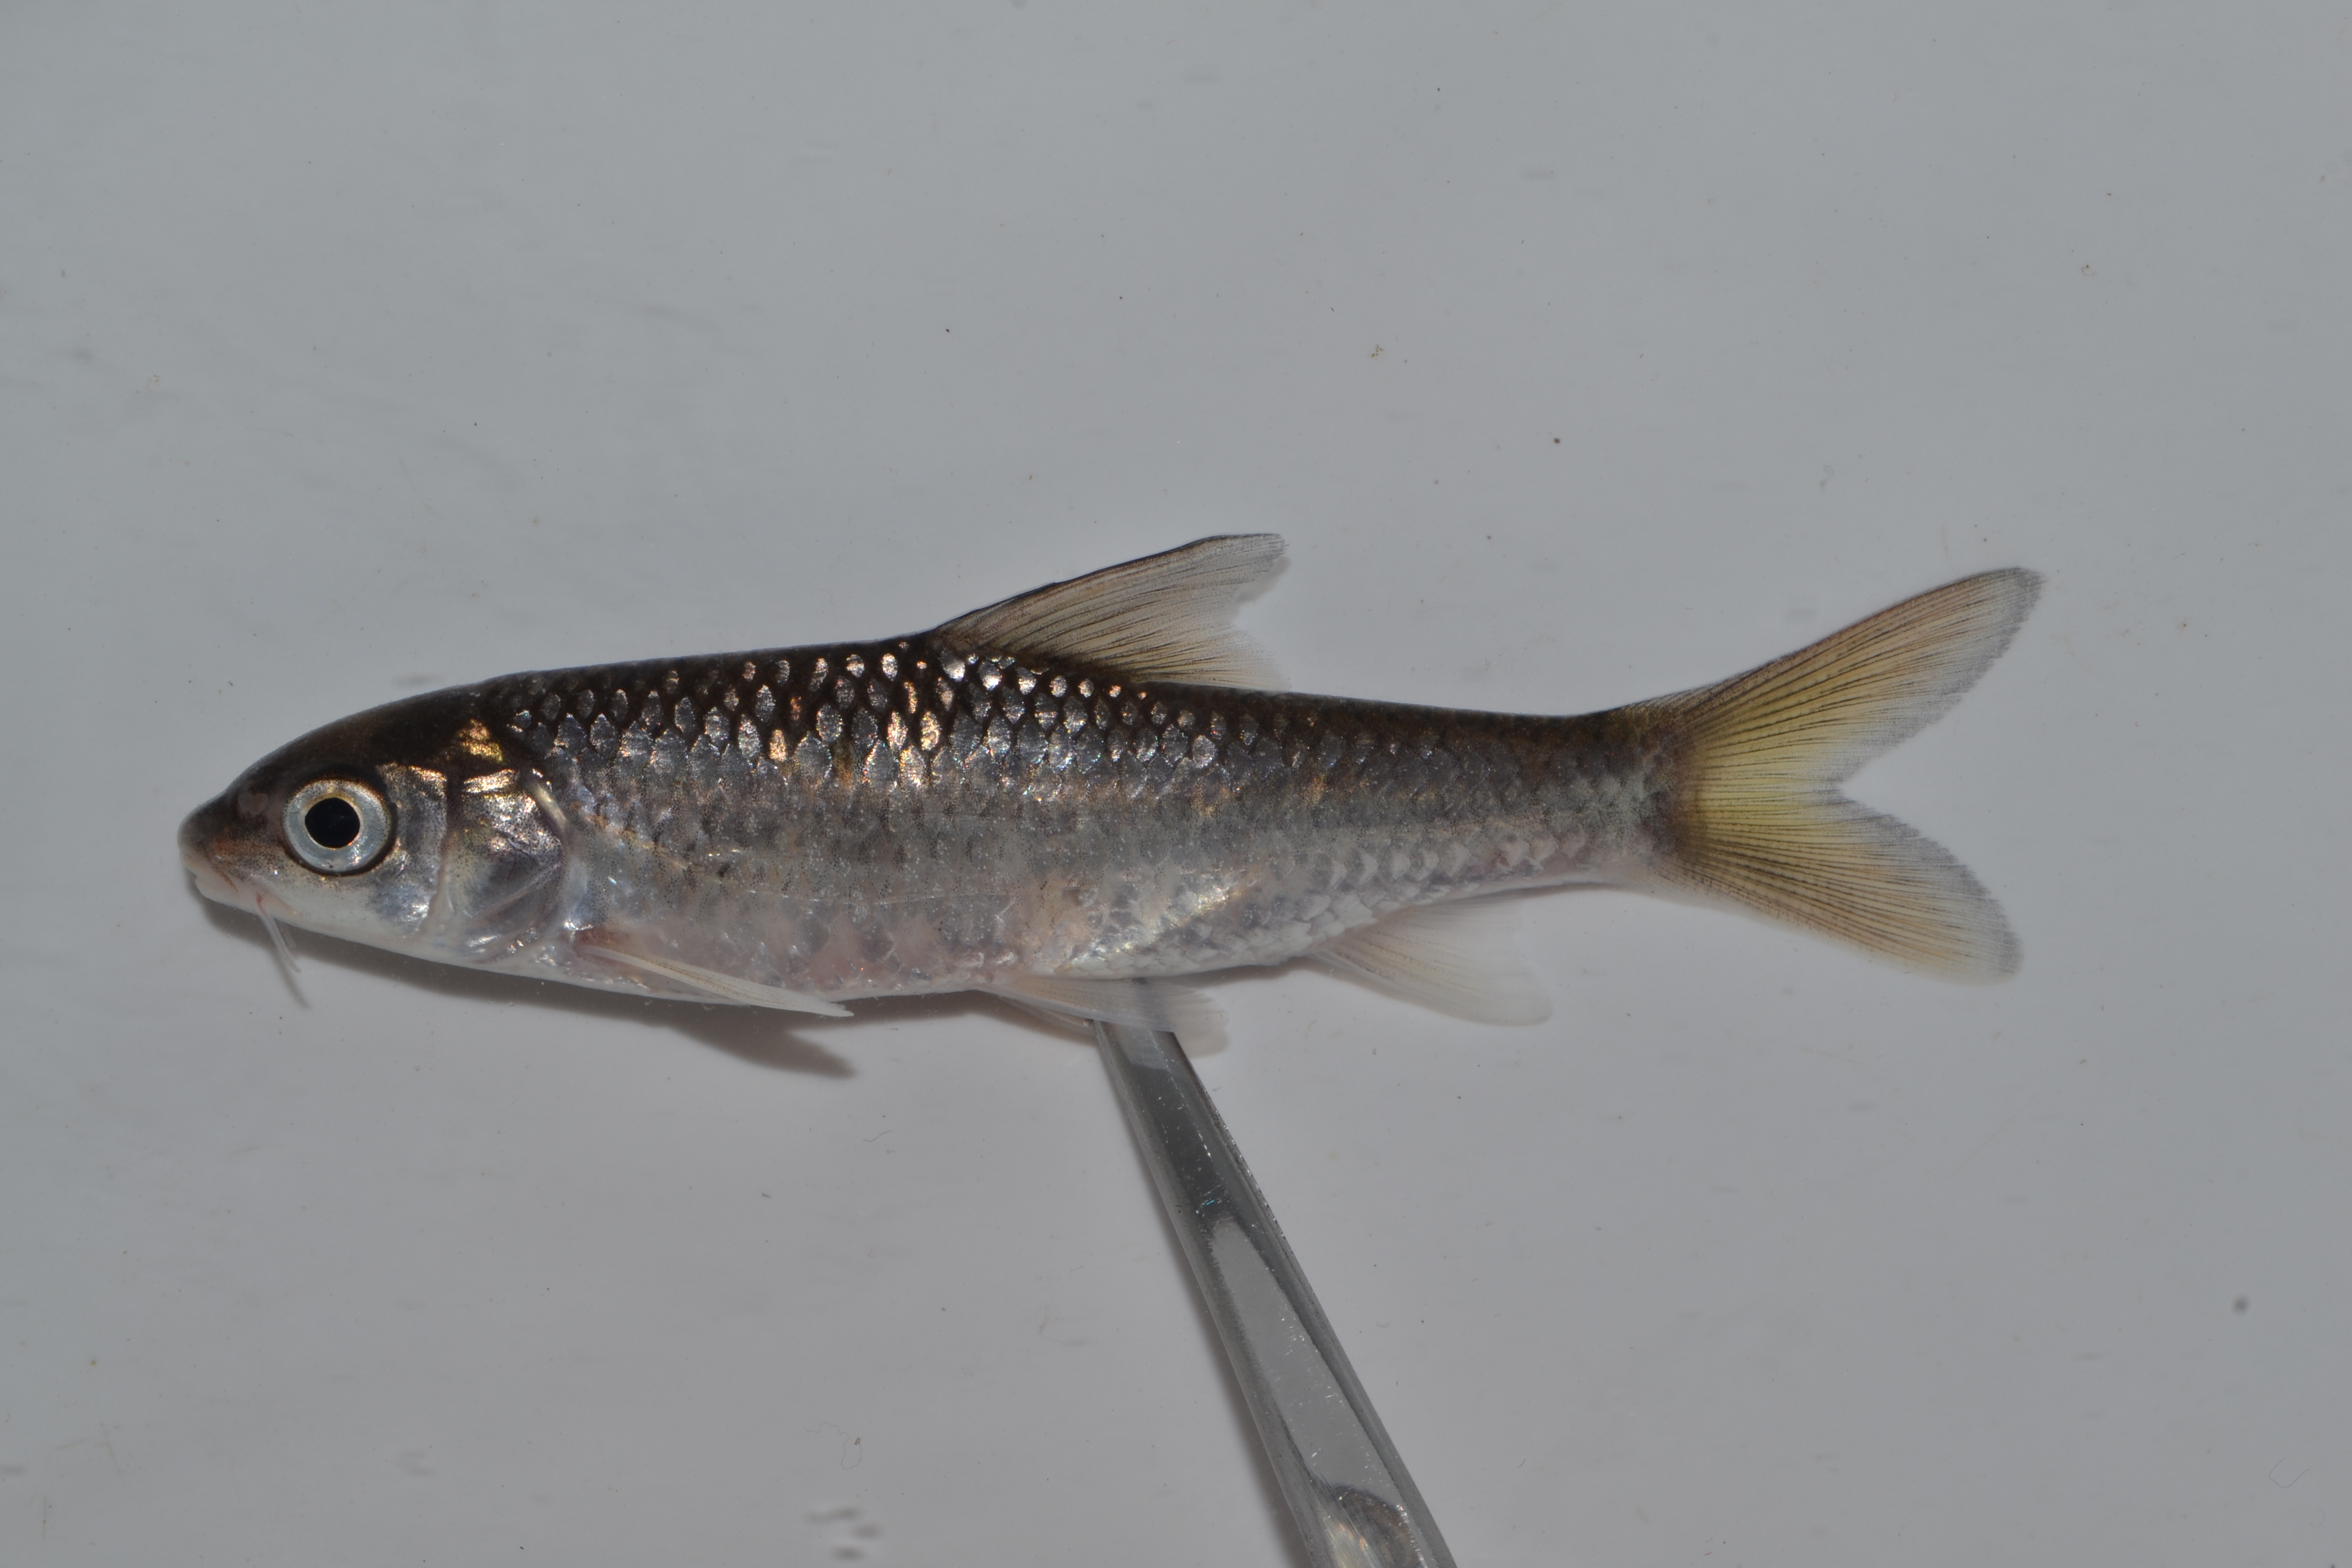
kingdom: Animalia
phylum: Chordata
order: Cypriniformes
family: Cyprinidae
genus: Labeobarbus
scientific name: Labeobarbus natalensis
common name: Scaly
